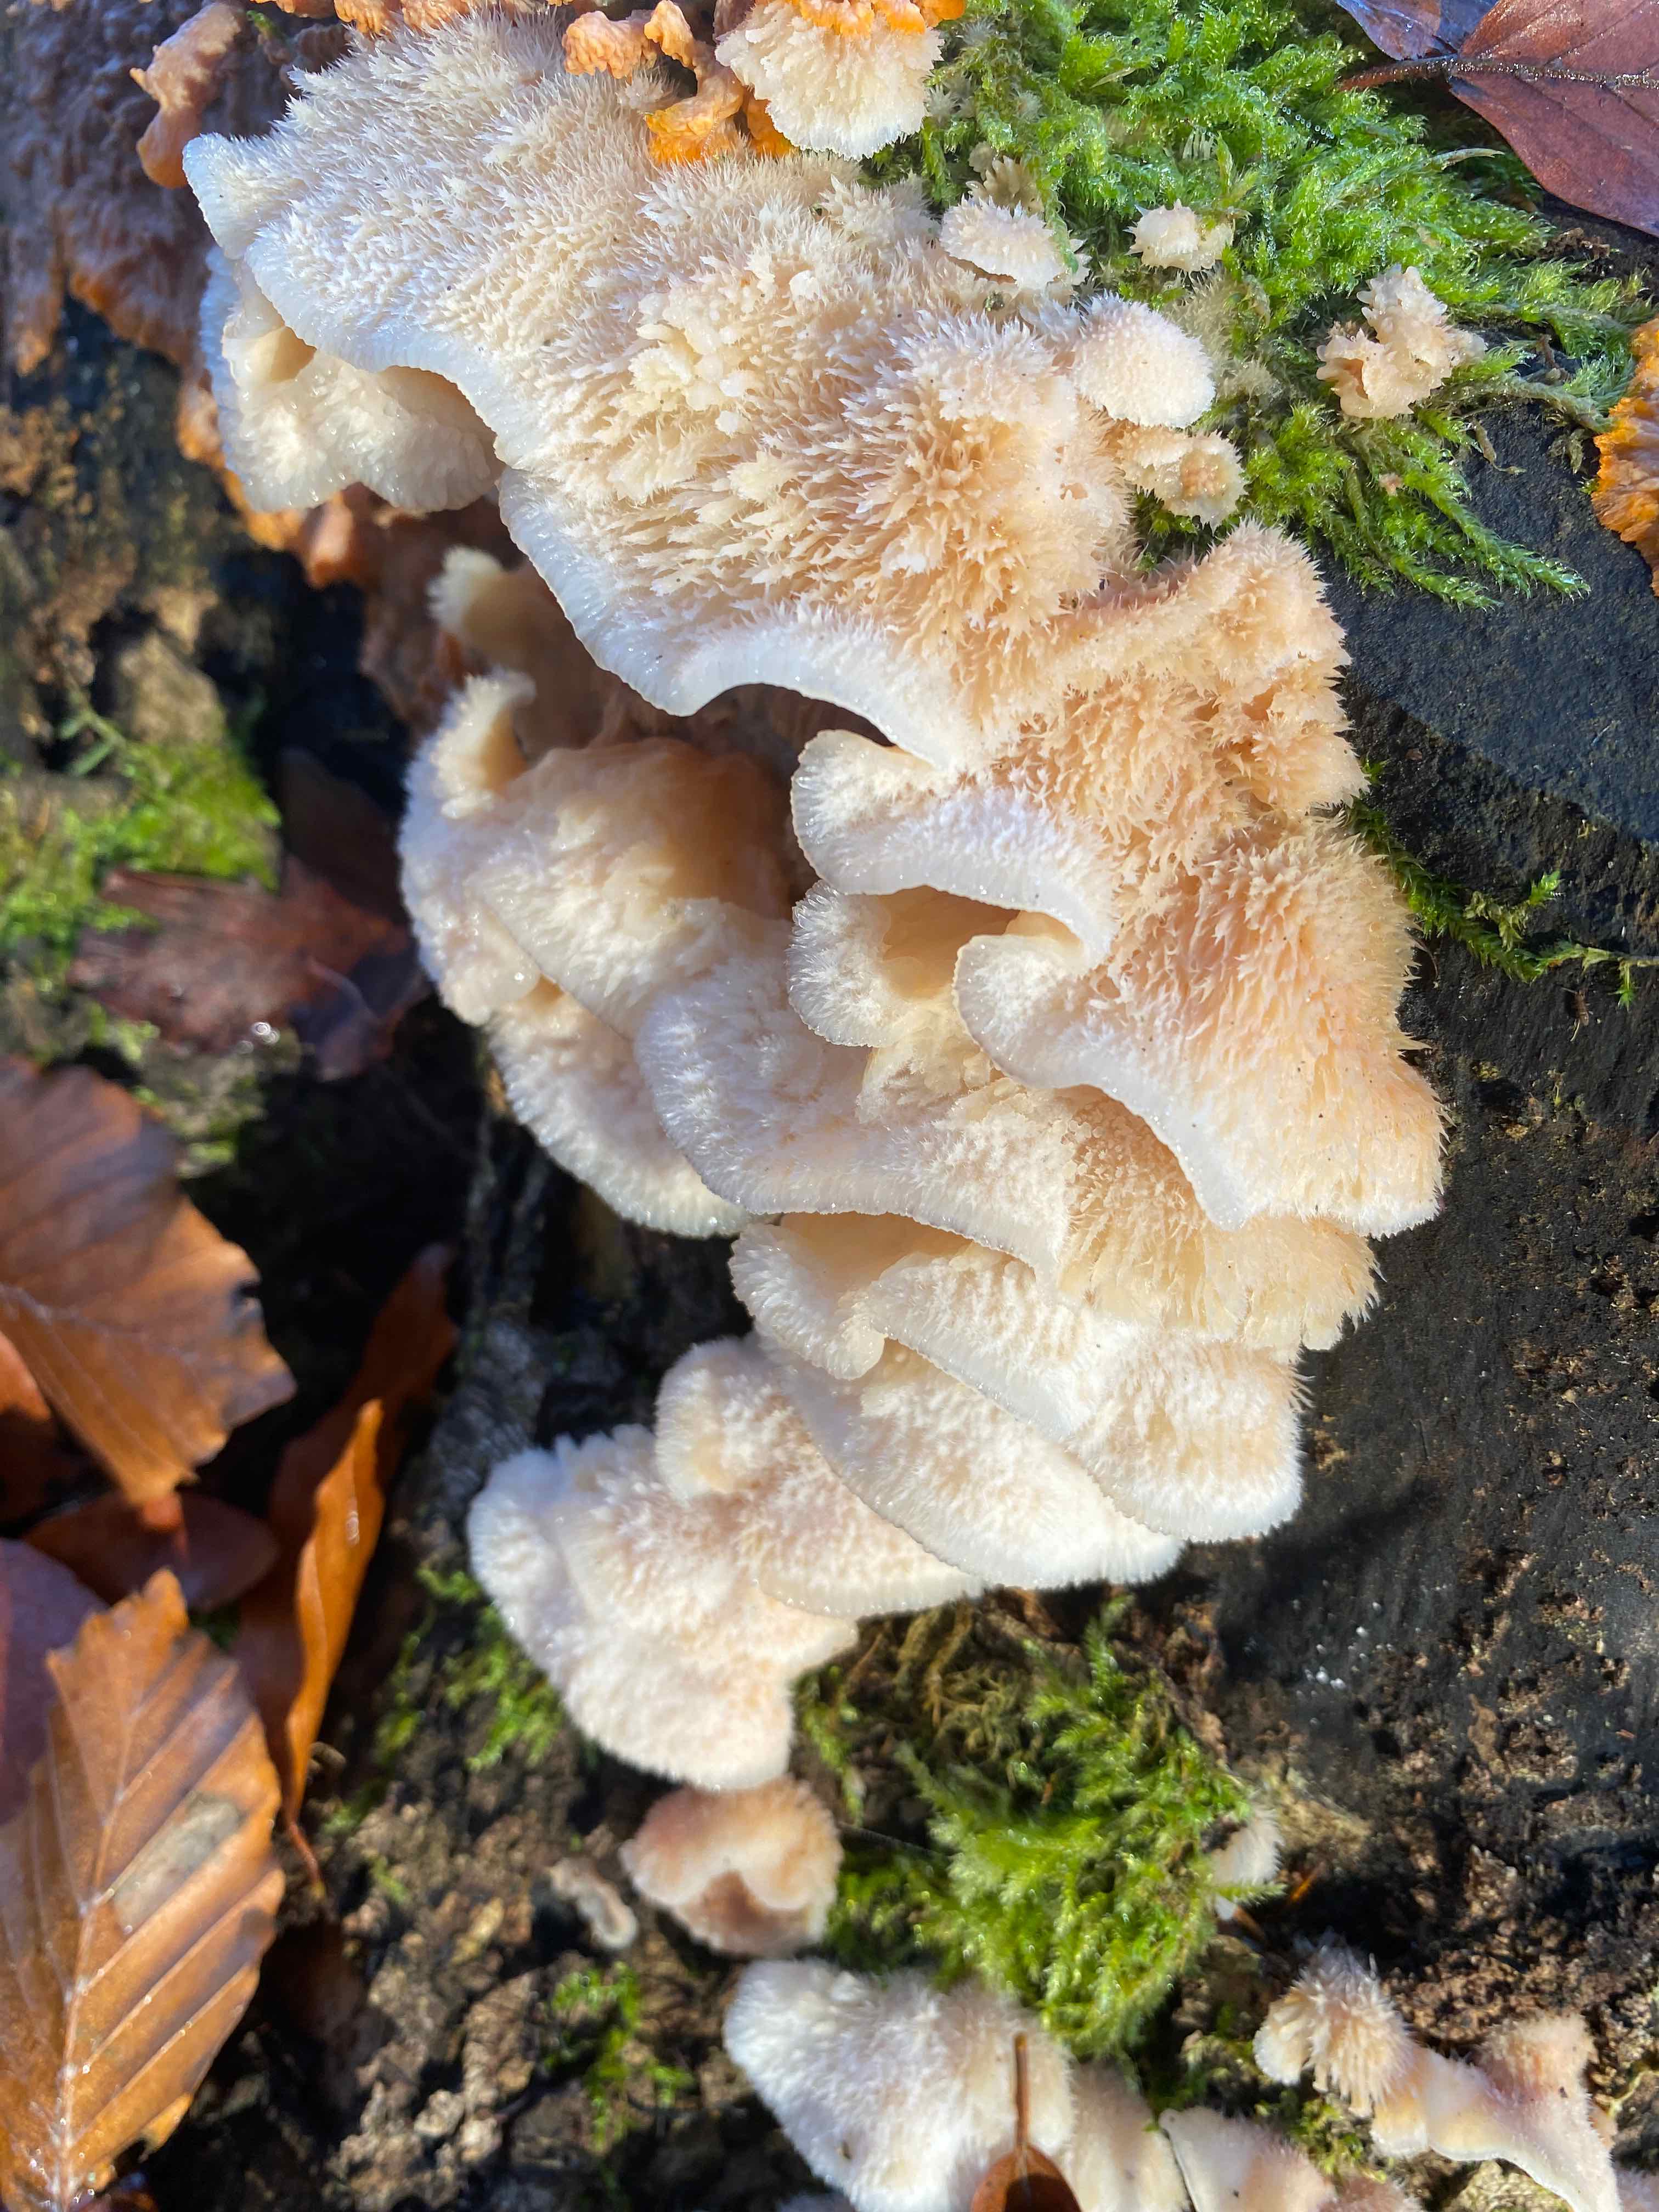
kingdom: Fungi
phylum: Basidiomycota
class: Agaricomycetes
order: Polyporales
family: Meruliaceae
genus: Phlebia
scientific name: Phlebia tremellosa
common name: bævrende åresvamp
